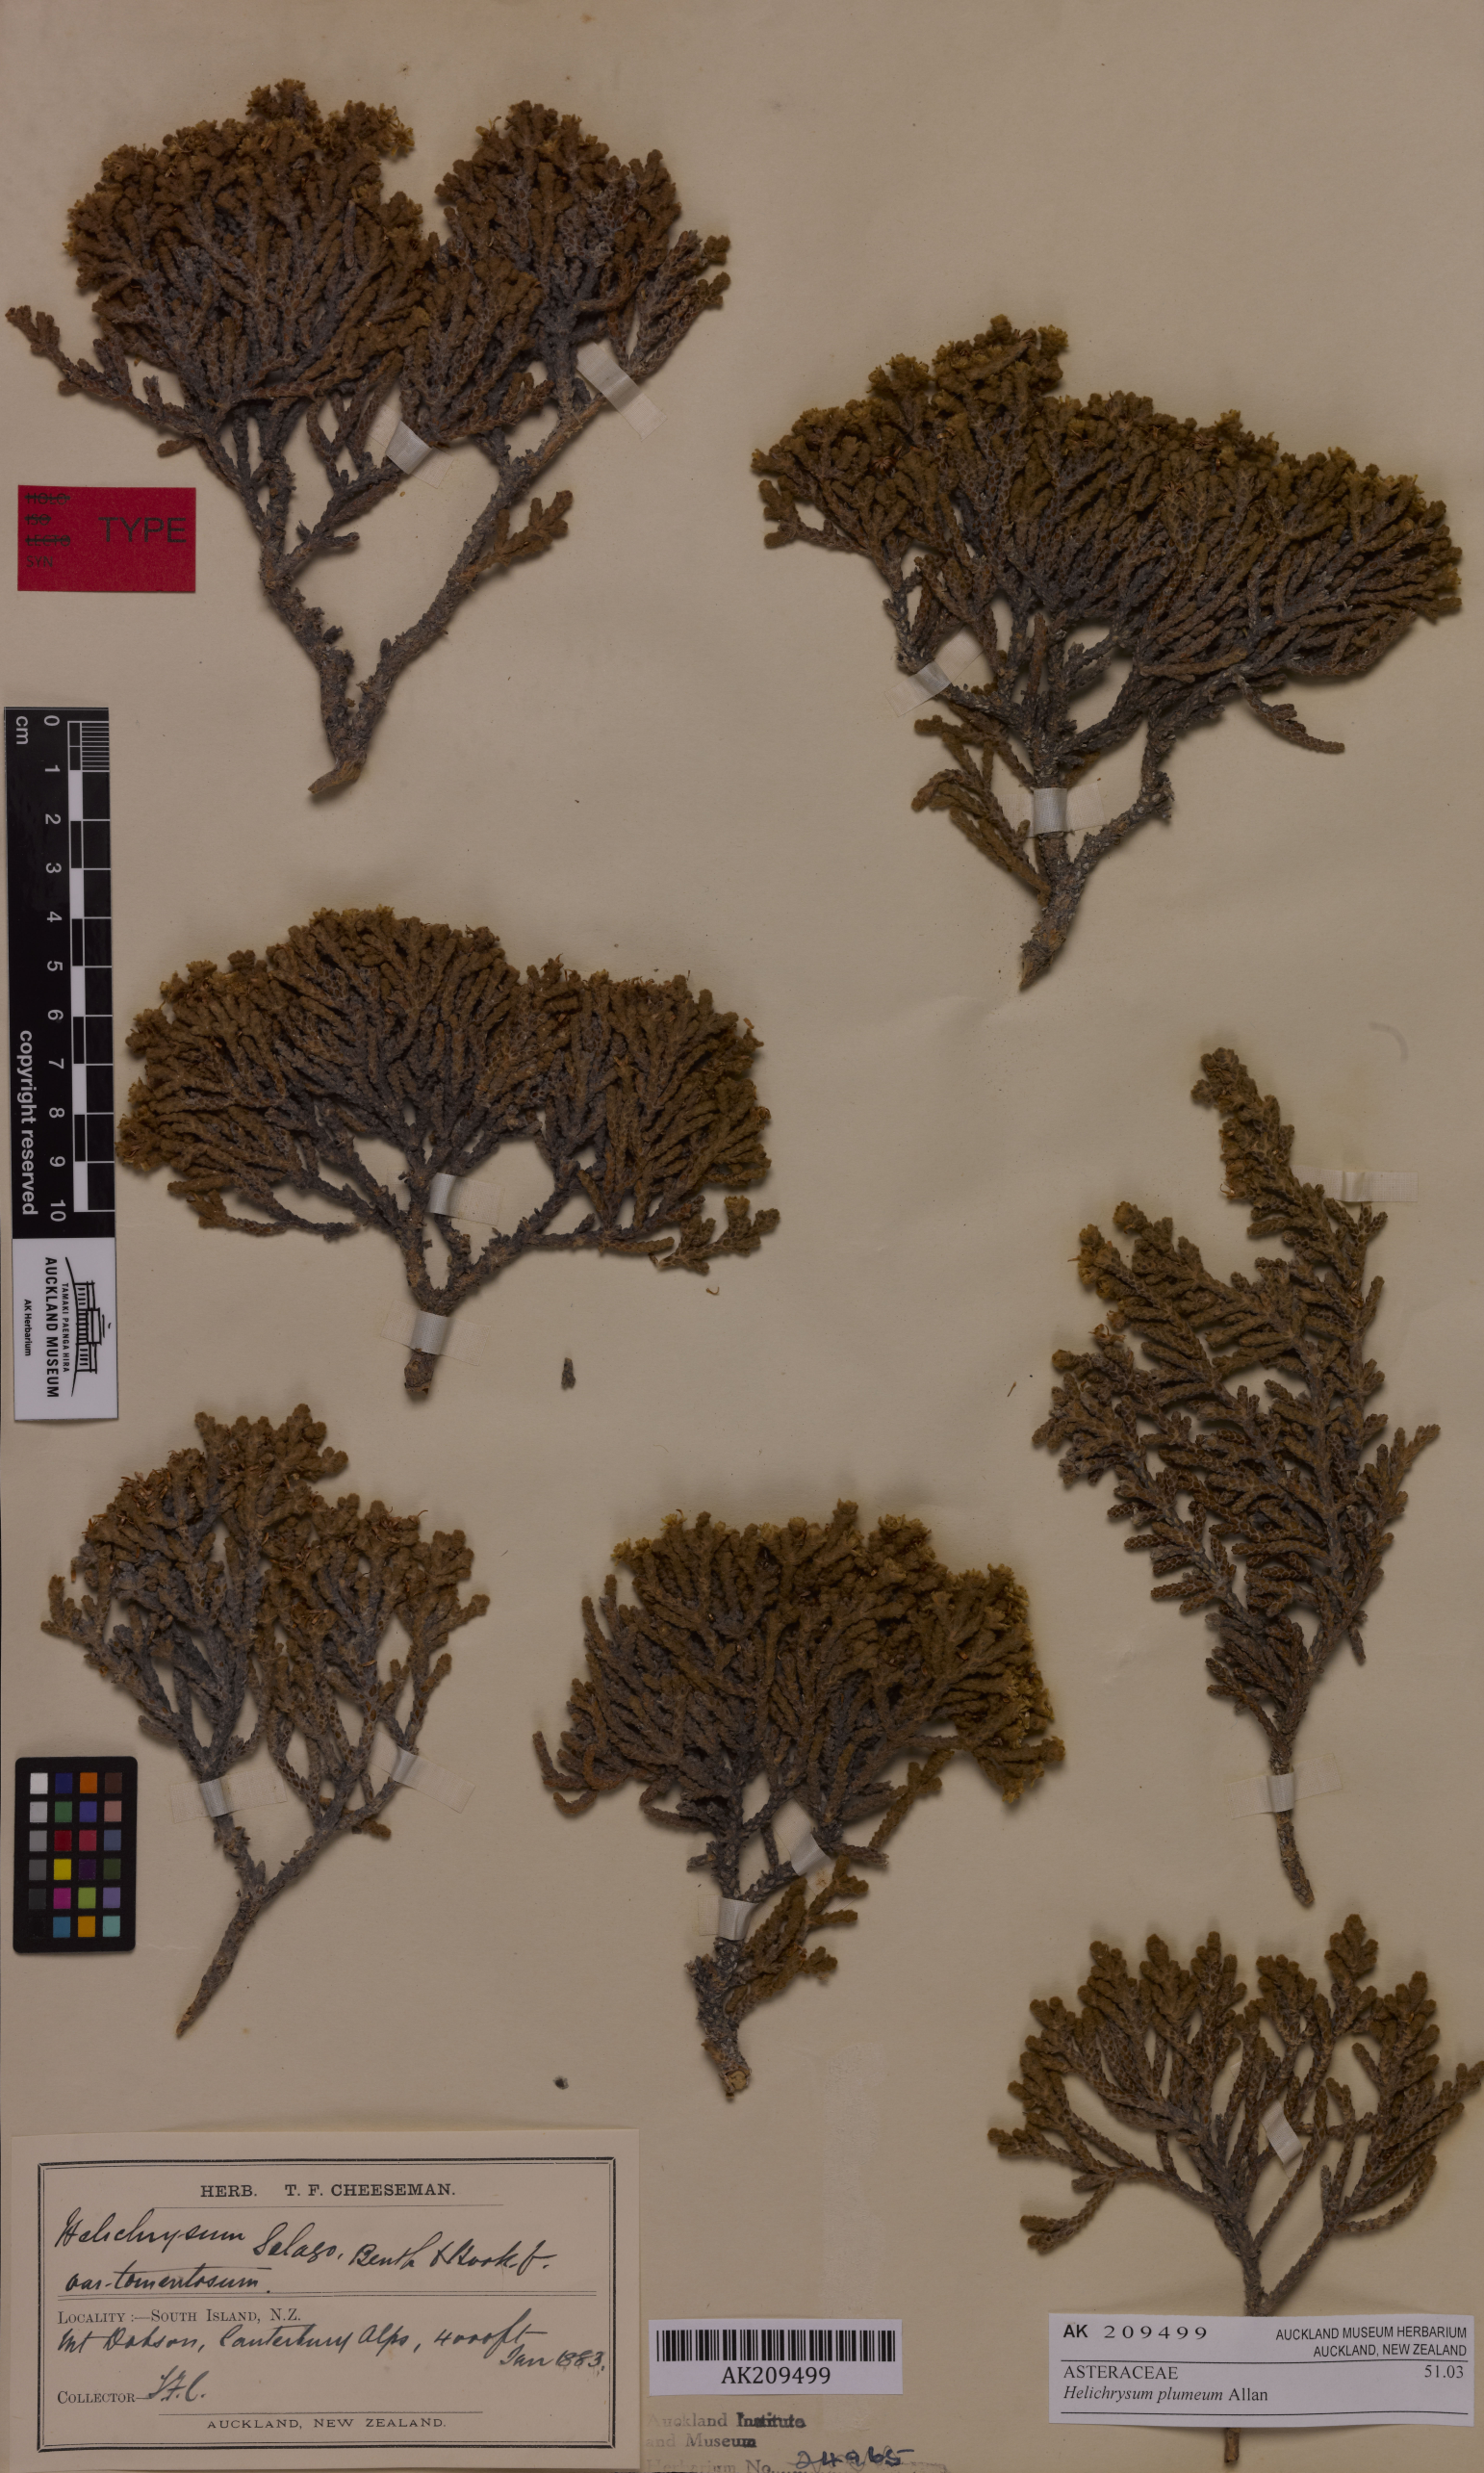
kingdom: Plantae
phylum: Tracheophyta
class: Magnoliopsida
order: Asterales
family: Asteraceae
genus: Ozothamnus
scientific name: Ozothamnus plumeus
